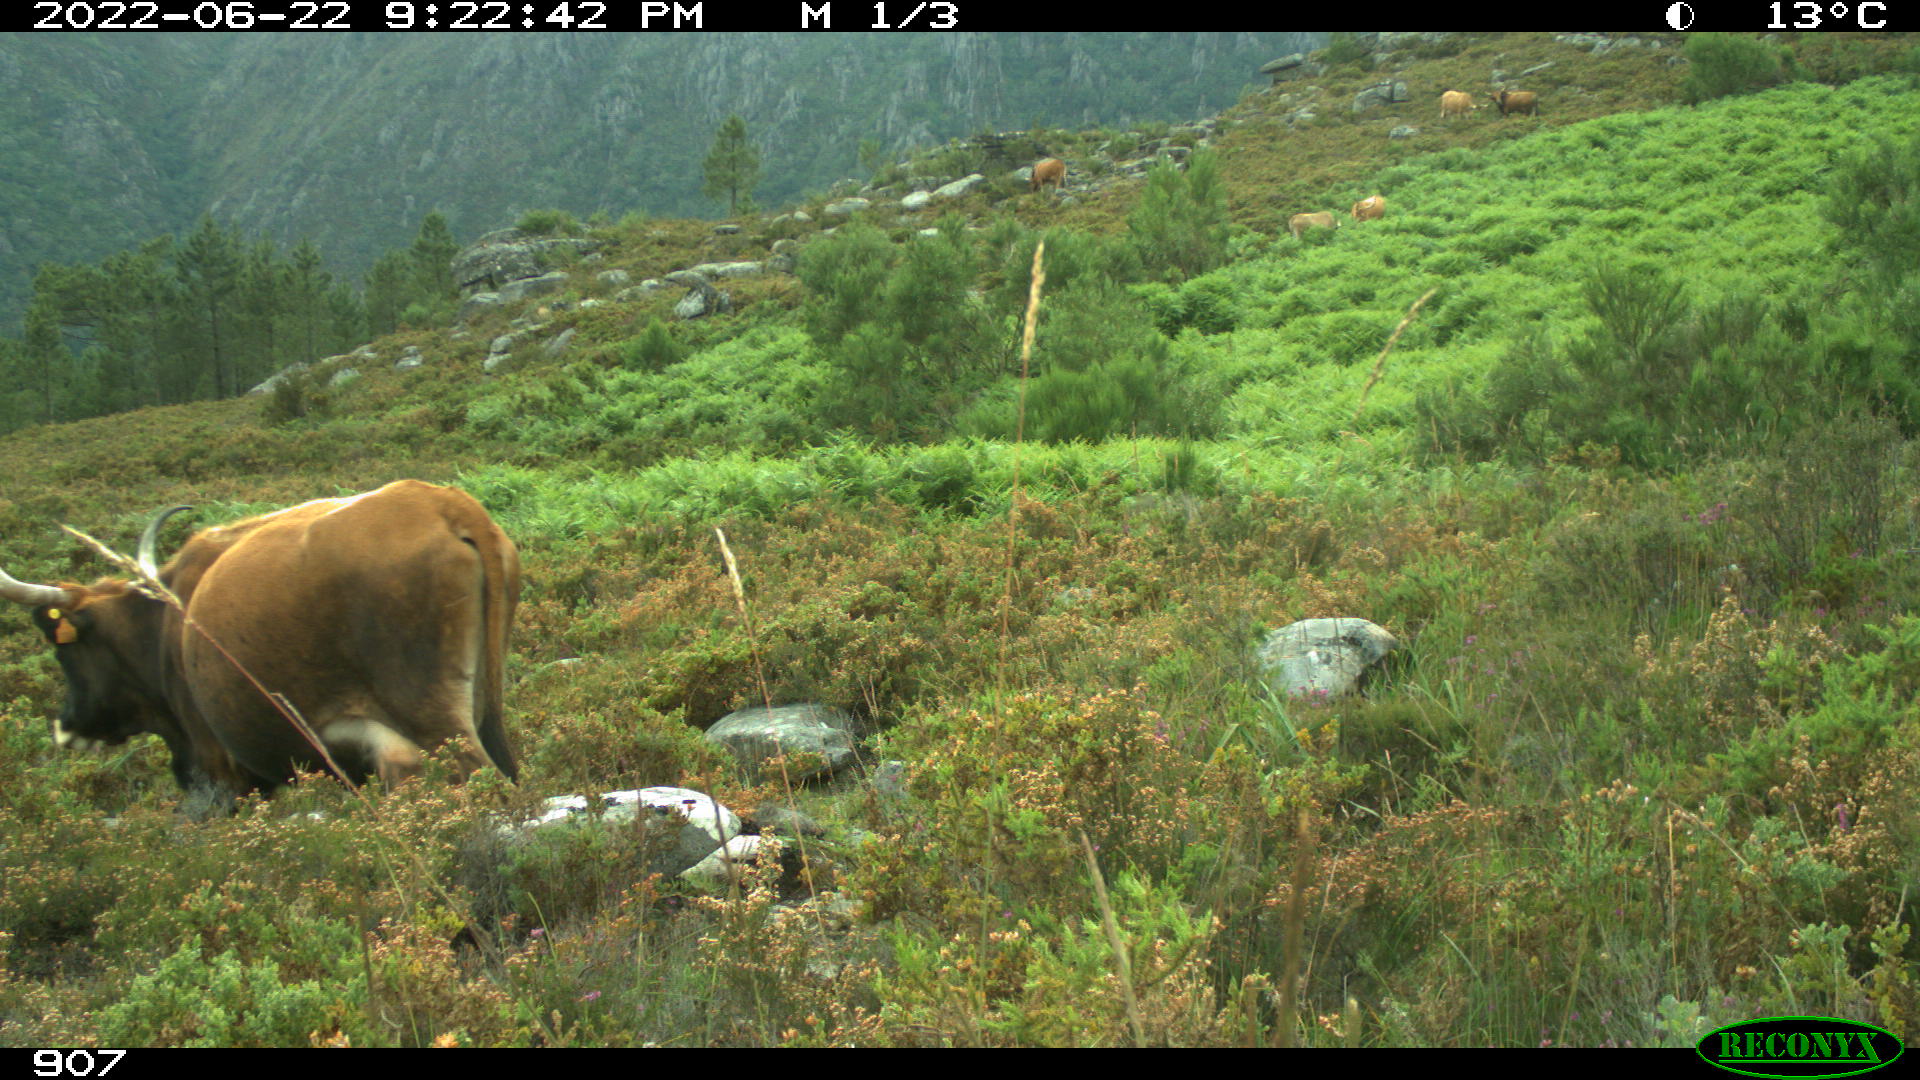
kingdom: Animalia
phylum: Chordata
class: Mammalia
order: Artiodactyla
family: Bovidae
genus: Bos
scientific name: Bos taurus
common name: Domesticated cattle
